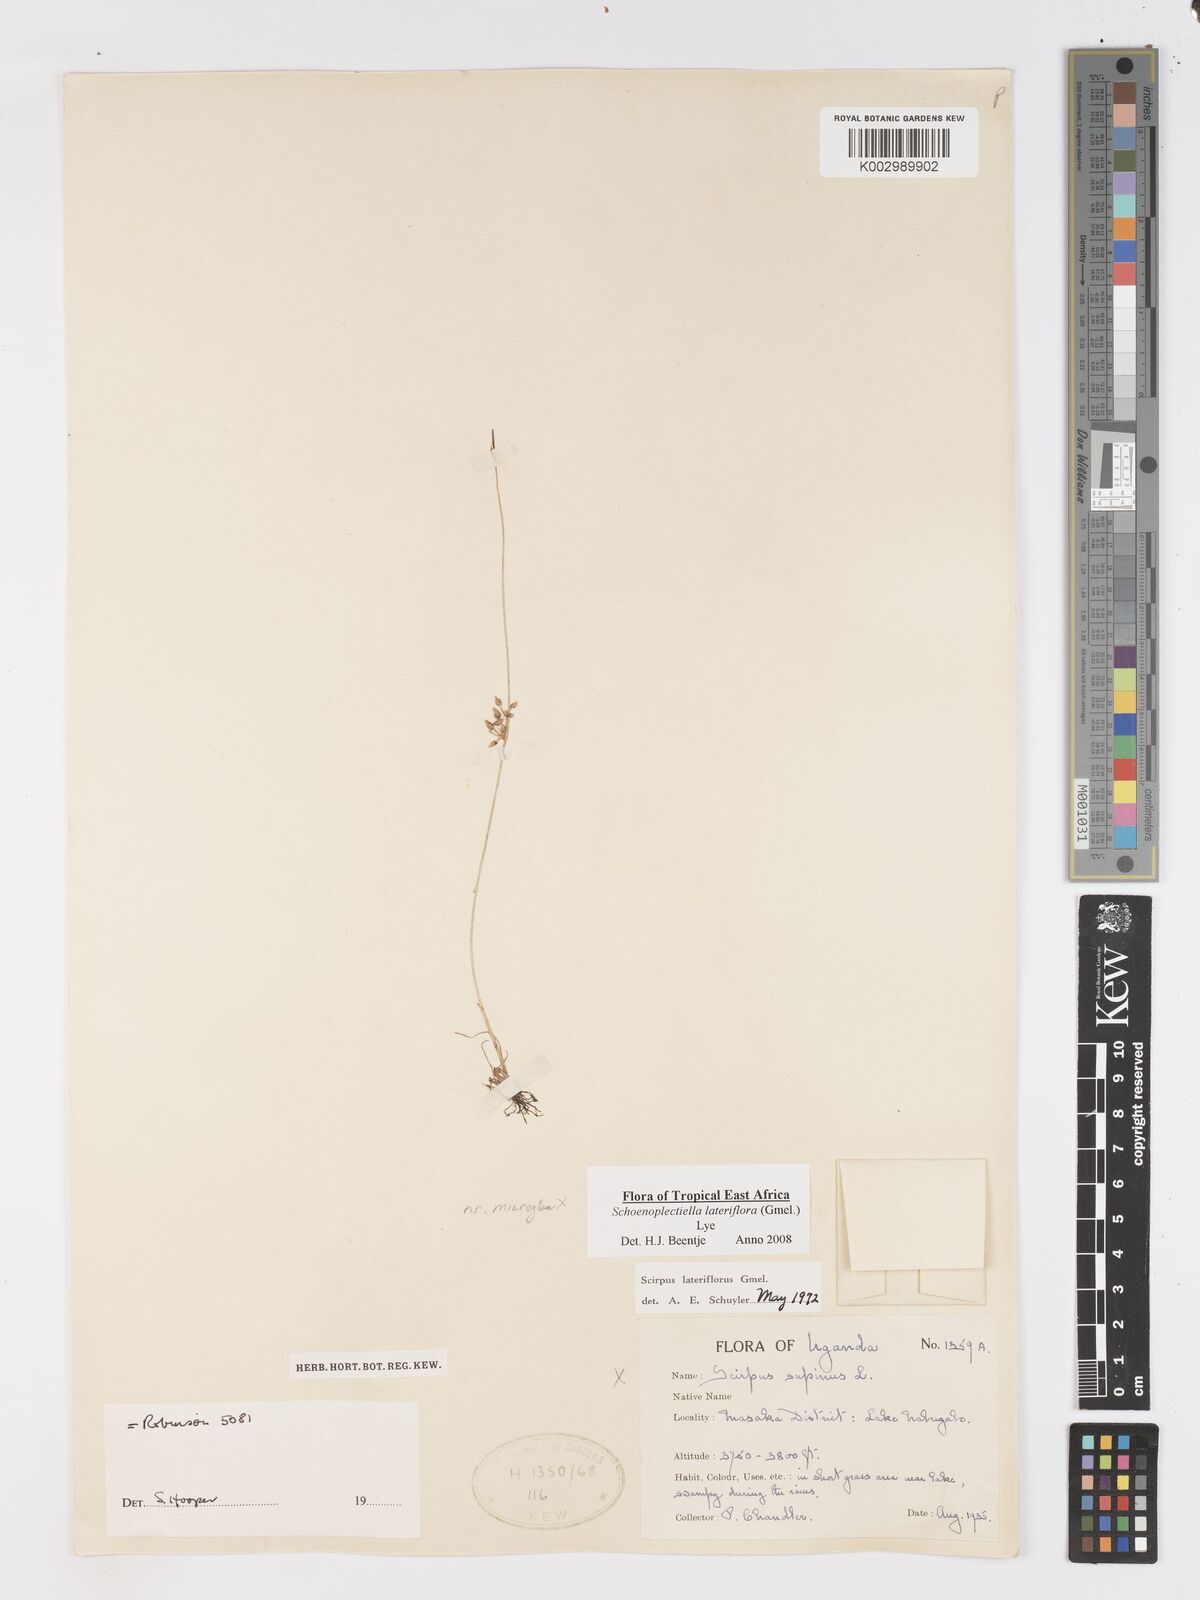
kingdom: Plantae
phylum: Tracheophyta
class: Liliopsida
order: Poales
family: Cyperaceae
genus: Schoenoplectiella
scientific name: Schoenoplectiella lateriflora
